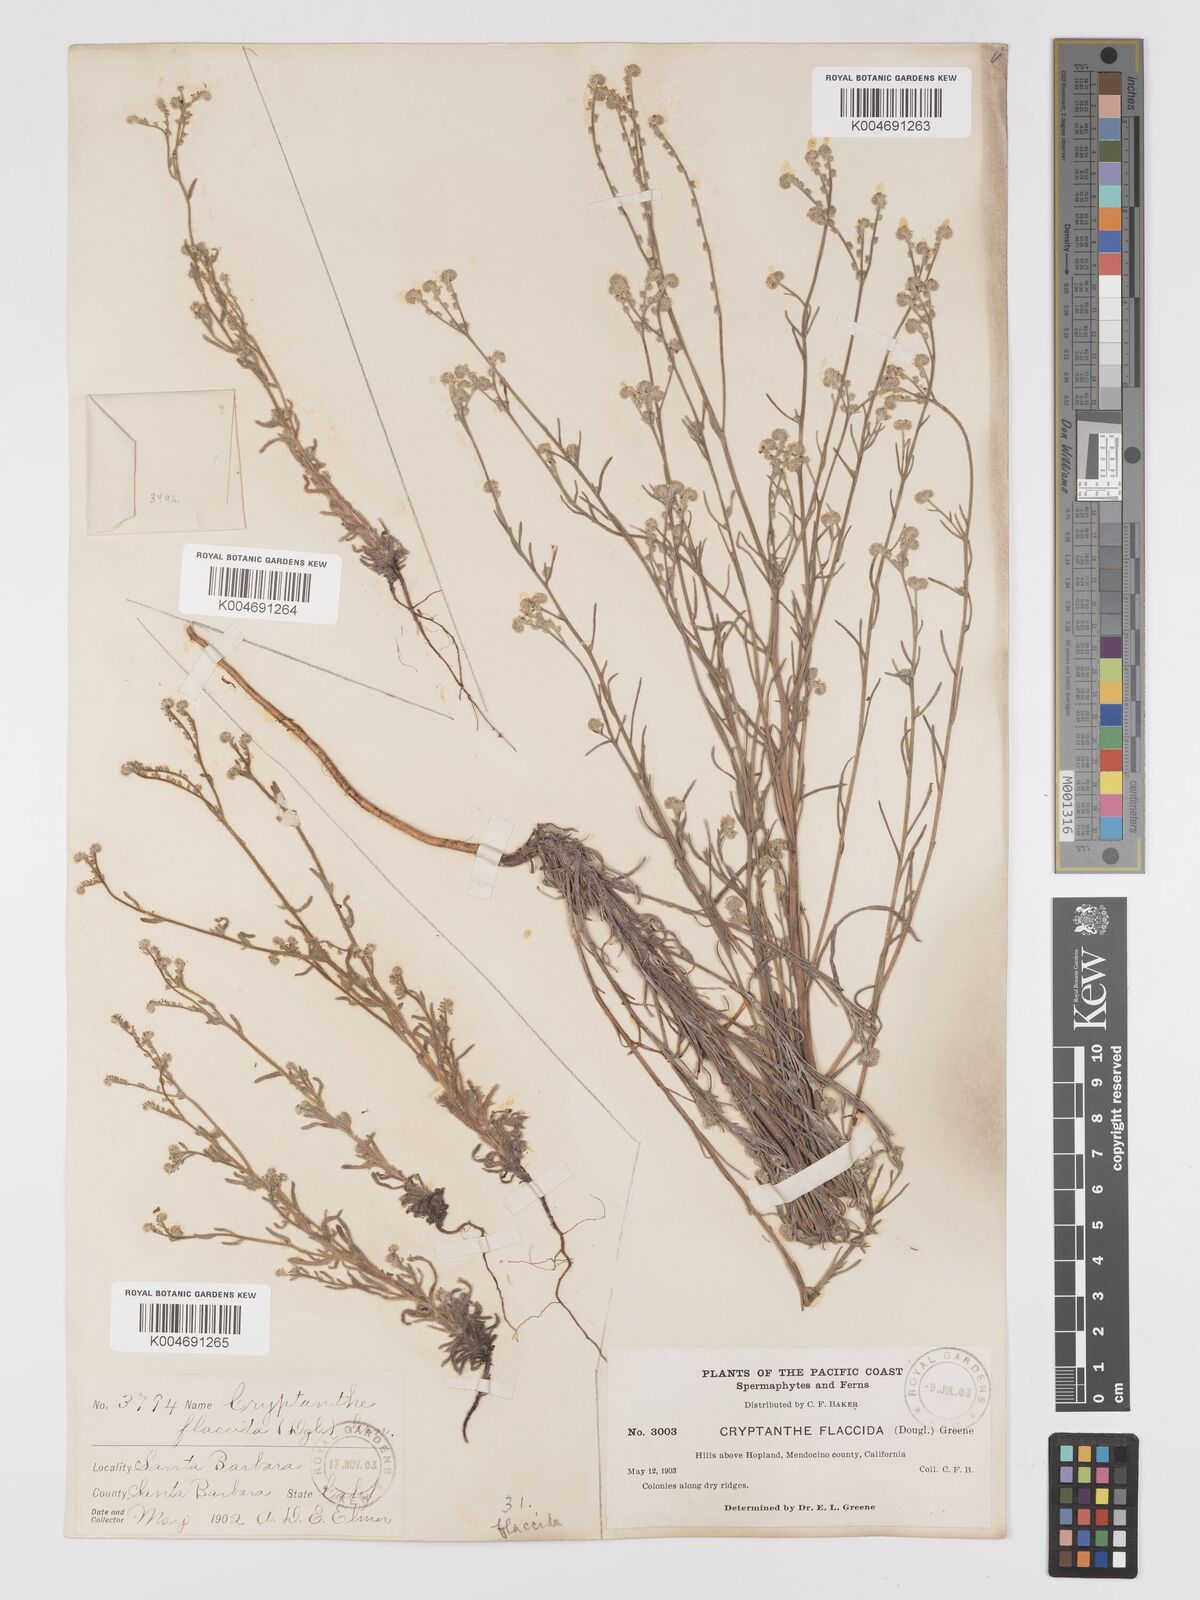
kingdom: Plantae
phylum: Tracheophyta
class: Magnoliopsida
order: Boraginales
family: Boraginaceae
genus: Cryptantha
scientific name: Cryptantha flaccida
